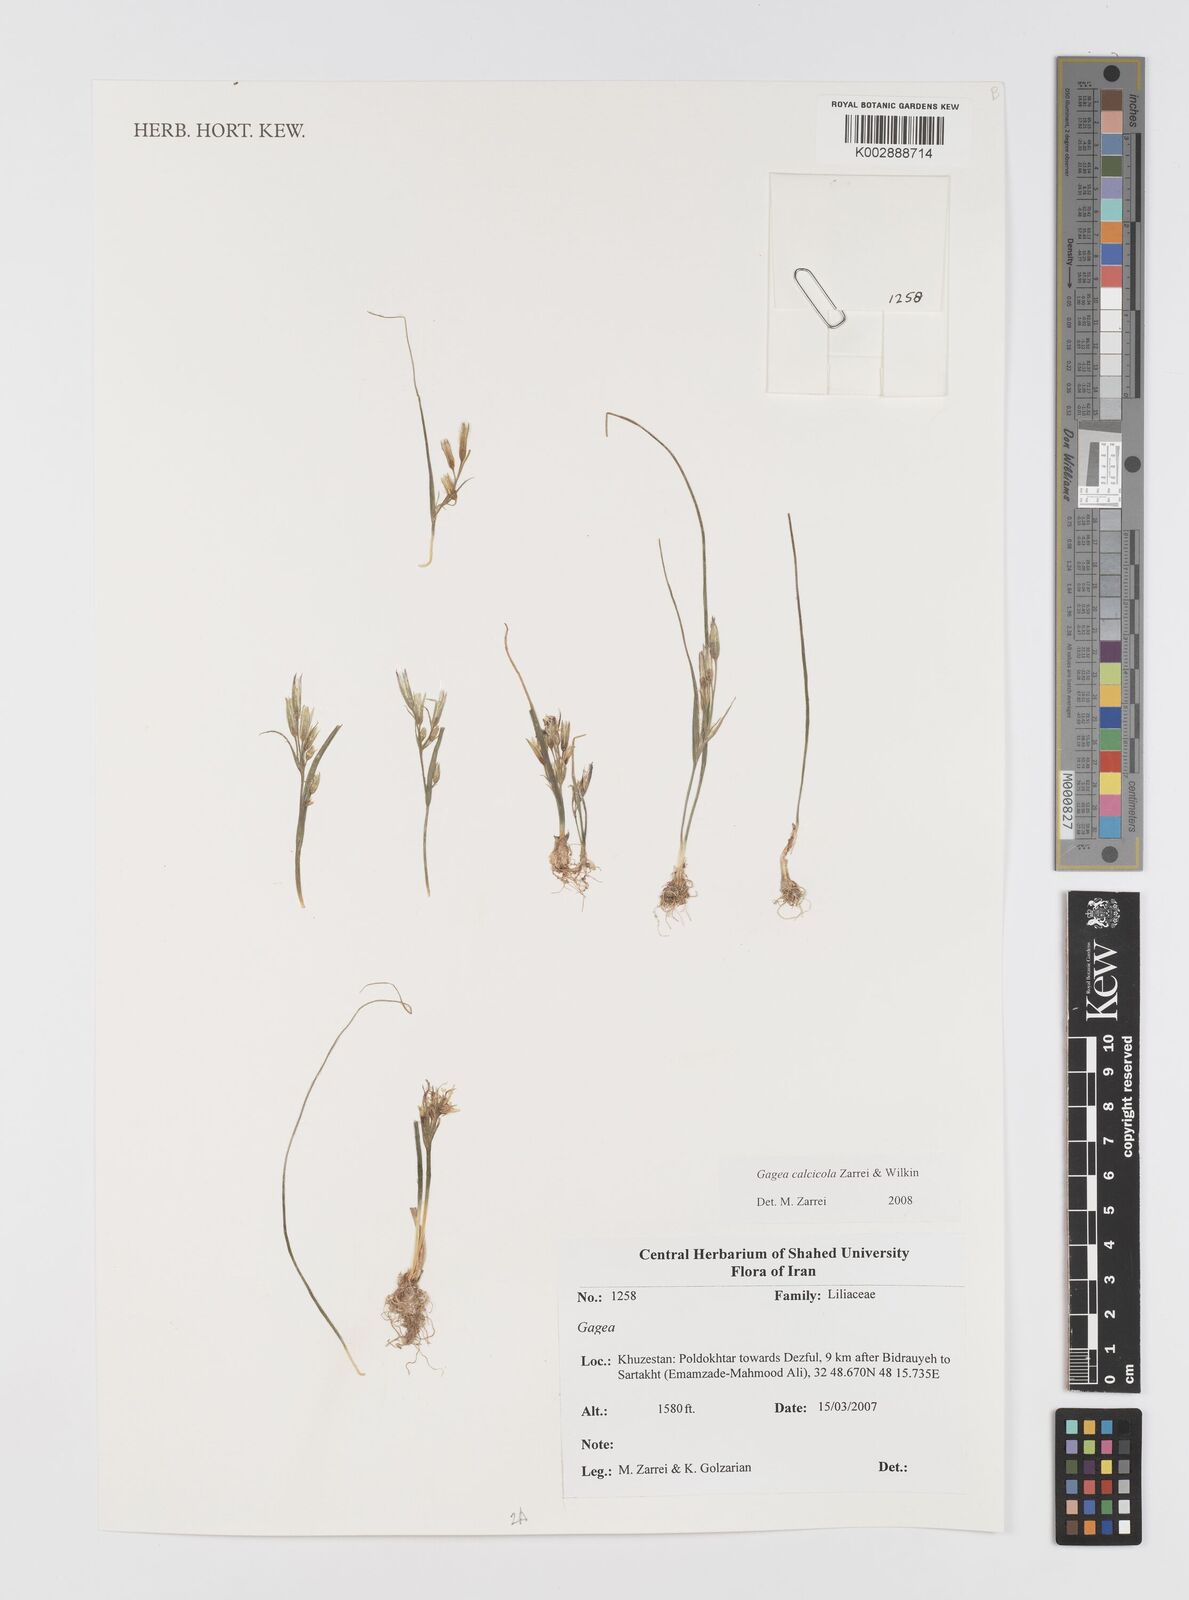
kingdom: Plantae
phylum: Tracheophyta
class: Liliopsida
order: Liliales
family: Liliaceae
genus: Gagea
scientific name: Gagea calcicola
